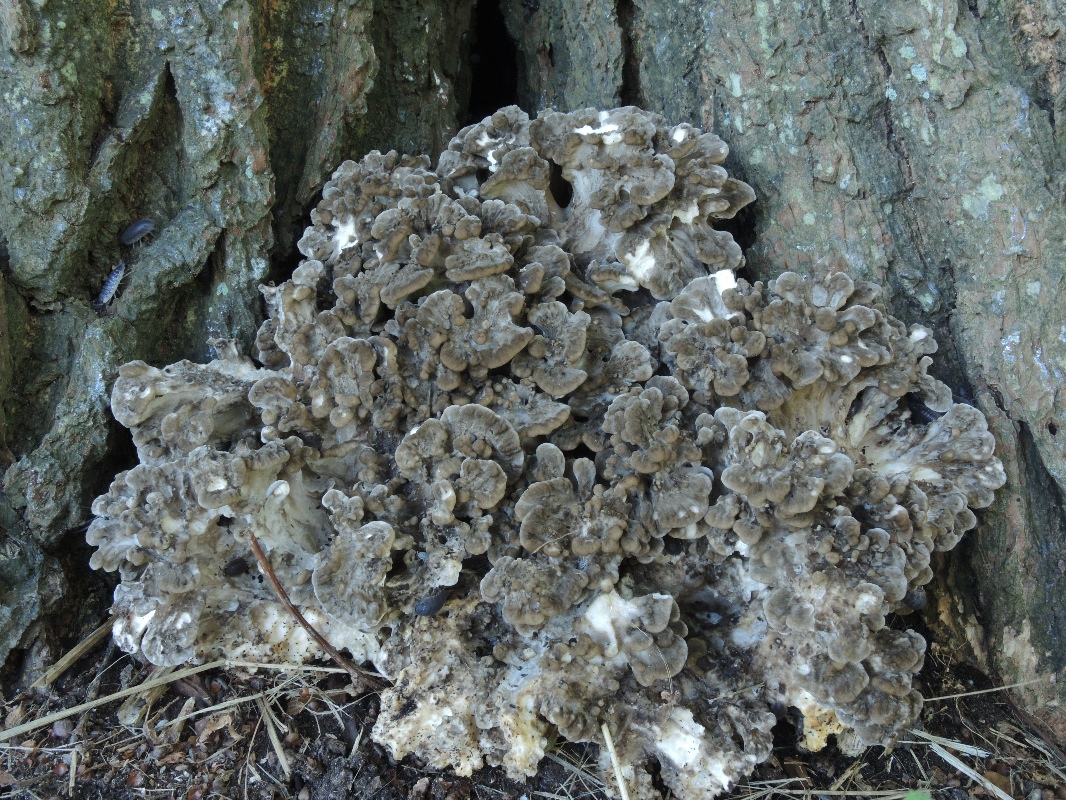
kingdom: Fungi
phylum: Basidiomycota
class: Agaricomycetes
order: Polyporales
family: Grifolaceae
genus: Grifola
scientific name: Grifola frondosa
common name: tueporesvamp
